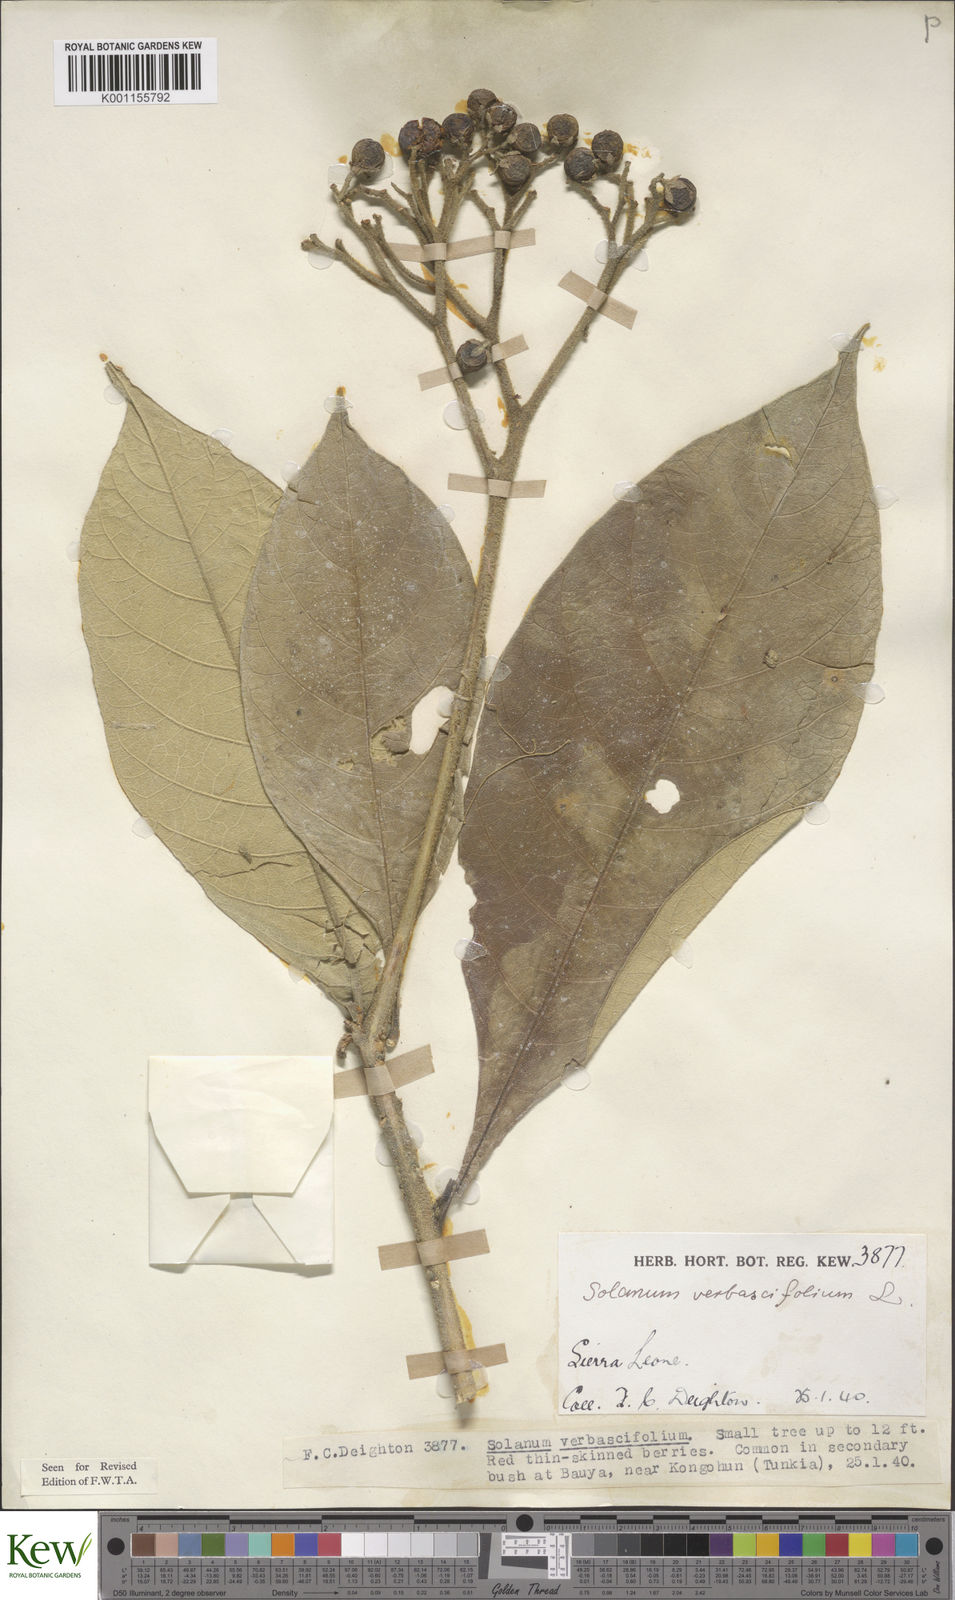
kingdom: Plantae
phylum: Tracheophyta
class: Magnoliopsida
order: Solanales
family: Solanaceae
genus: Solanum
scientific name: Solanum rugosum
